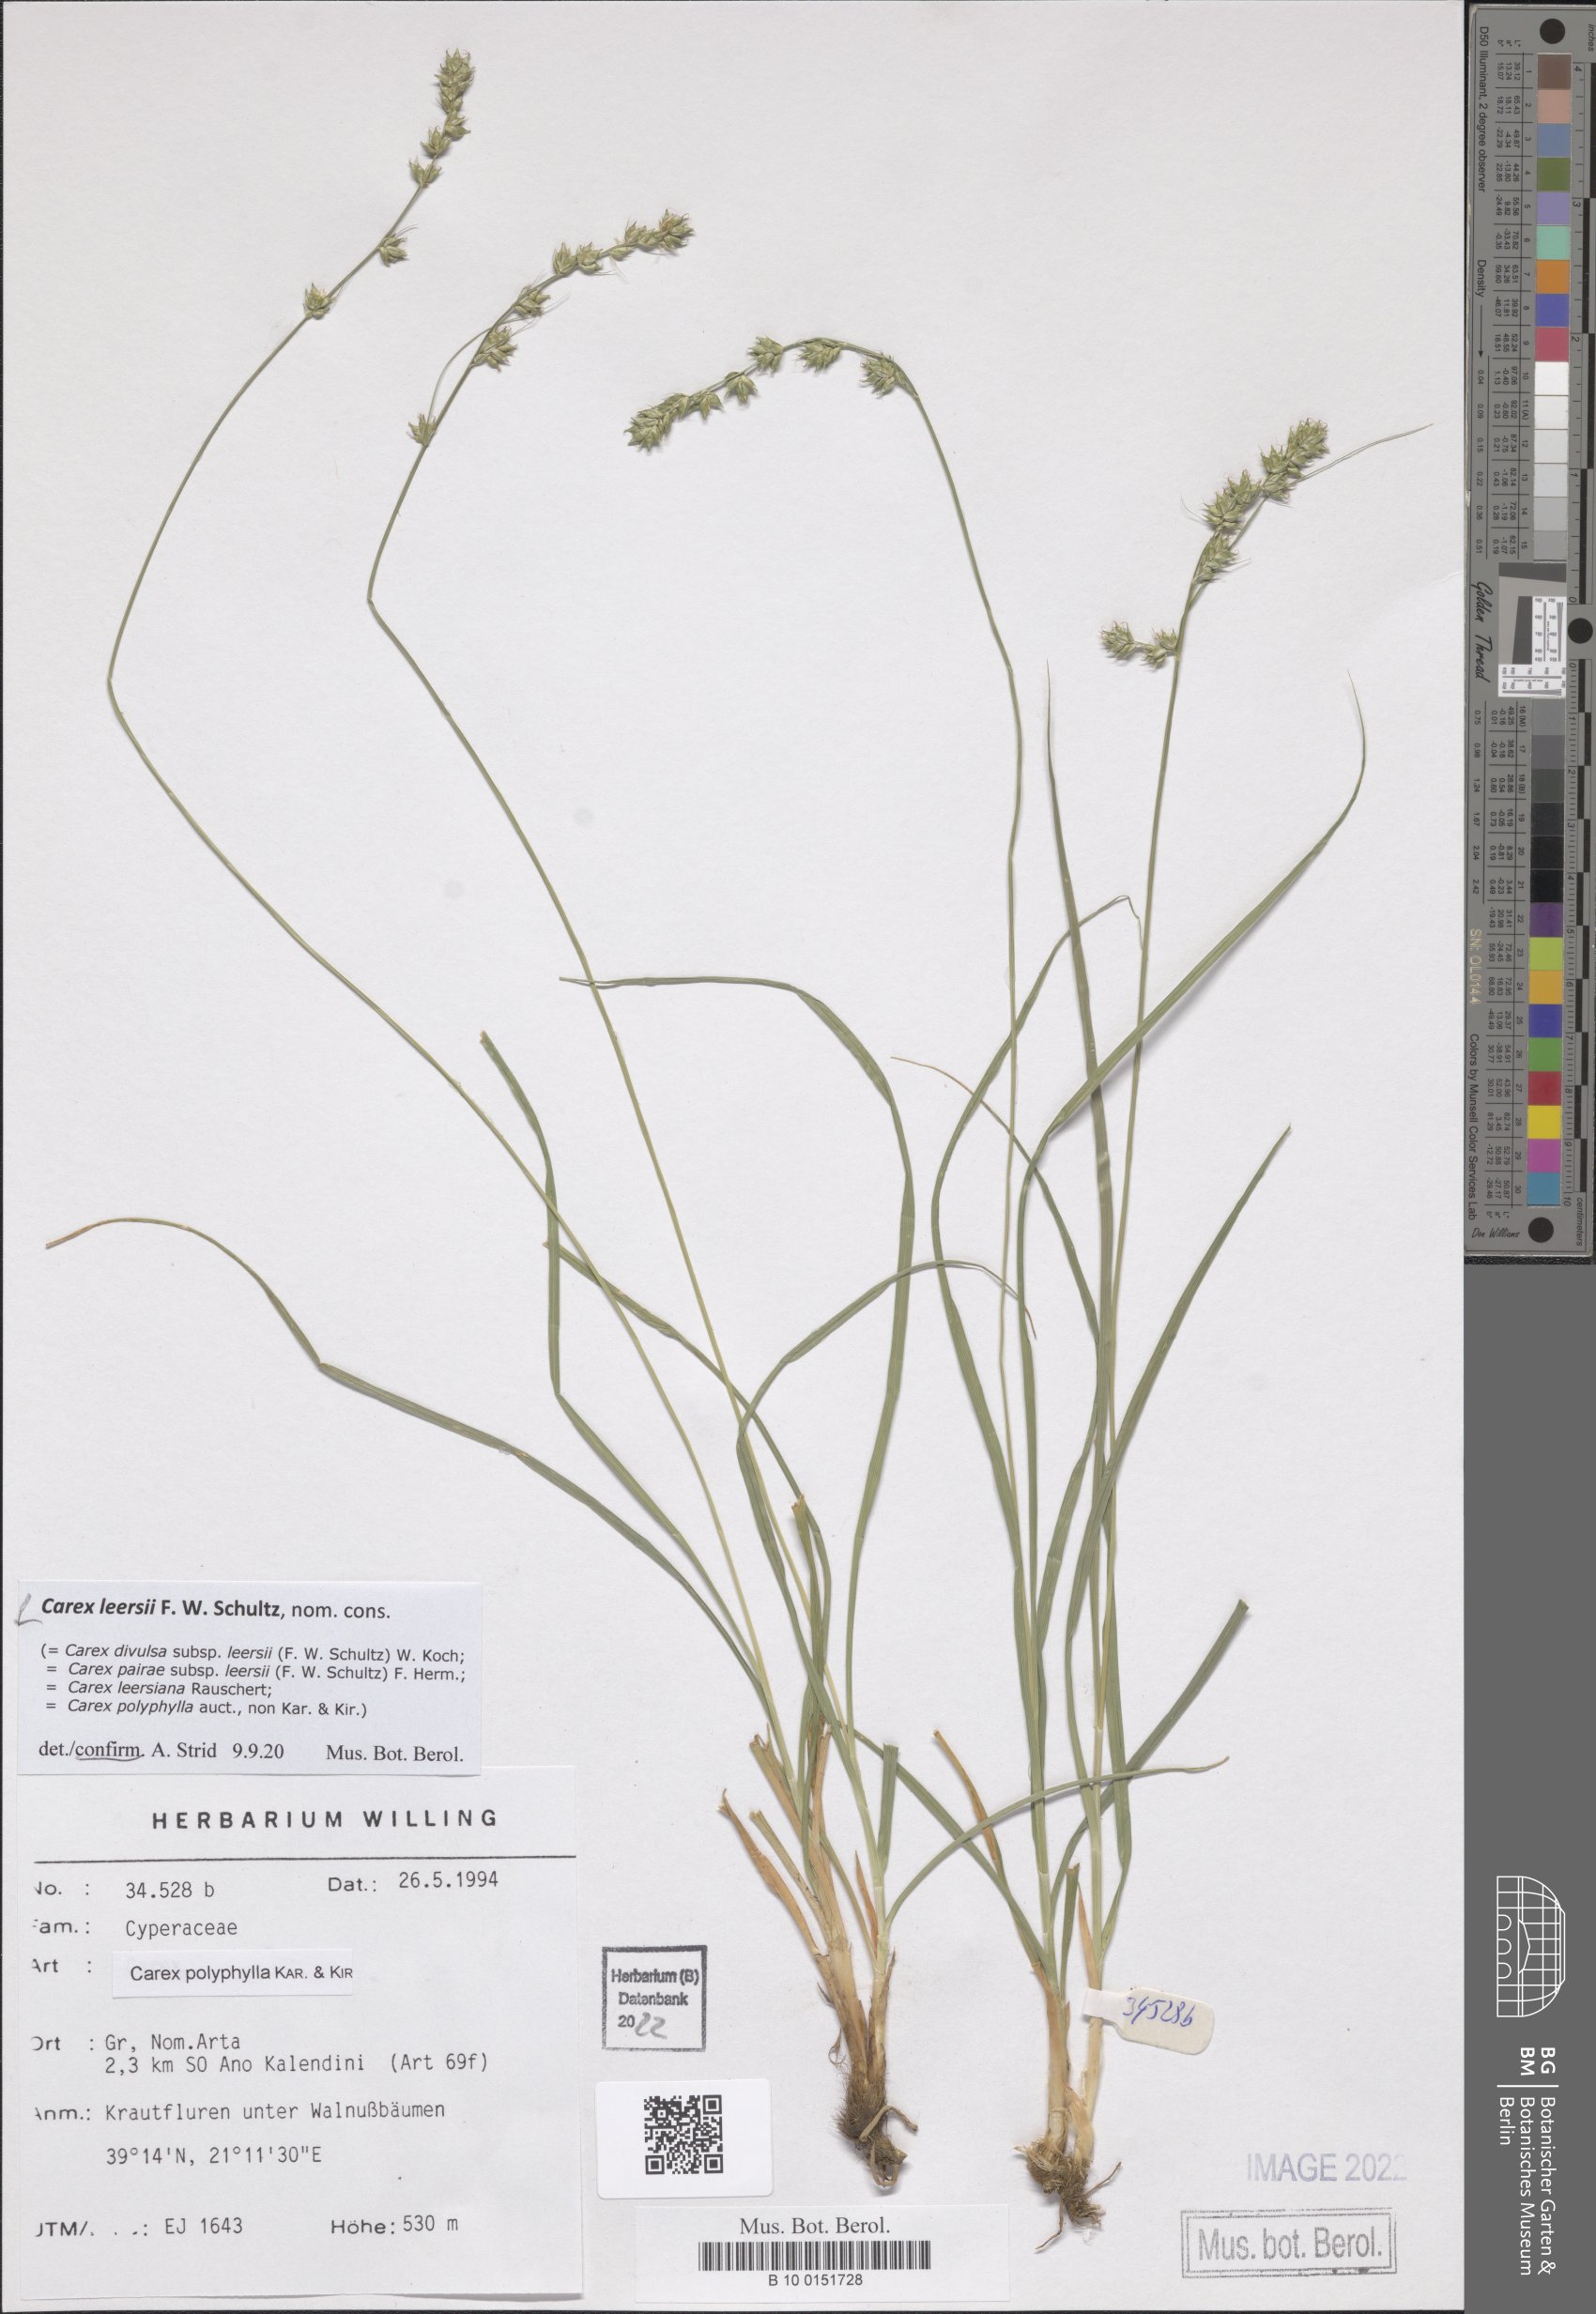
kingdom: Plantae
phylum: Tracheophyta
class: Liliopsida
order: Poales
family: Cyperaceae
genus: Carex
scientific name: Carex leersii
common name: Leers' sedge
